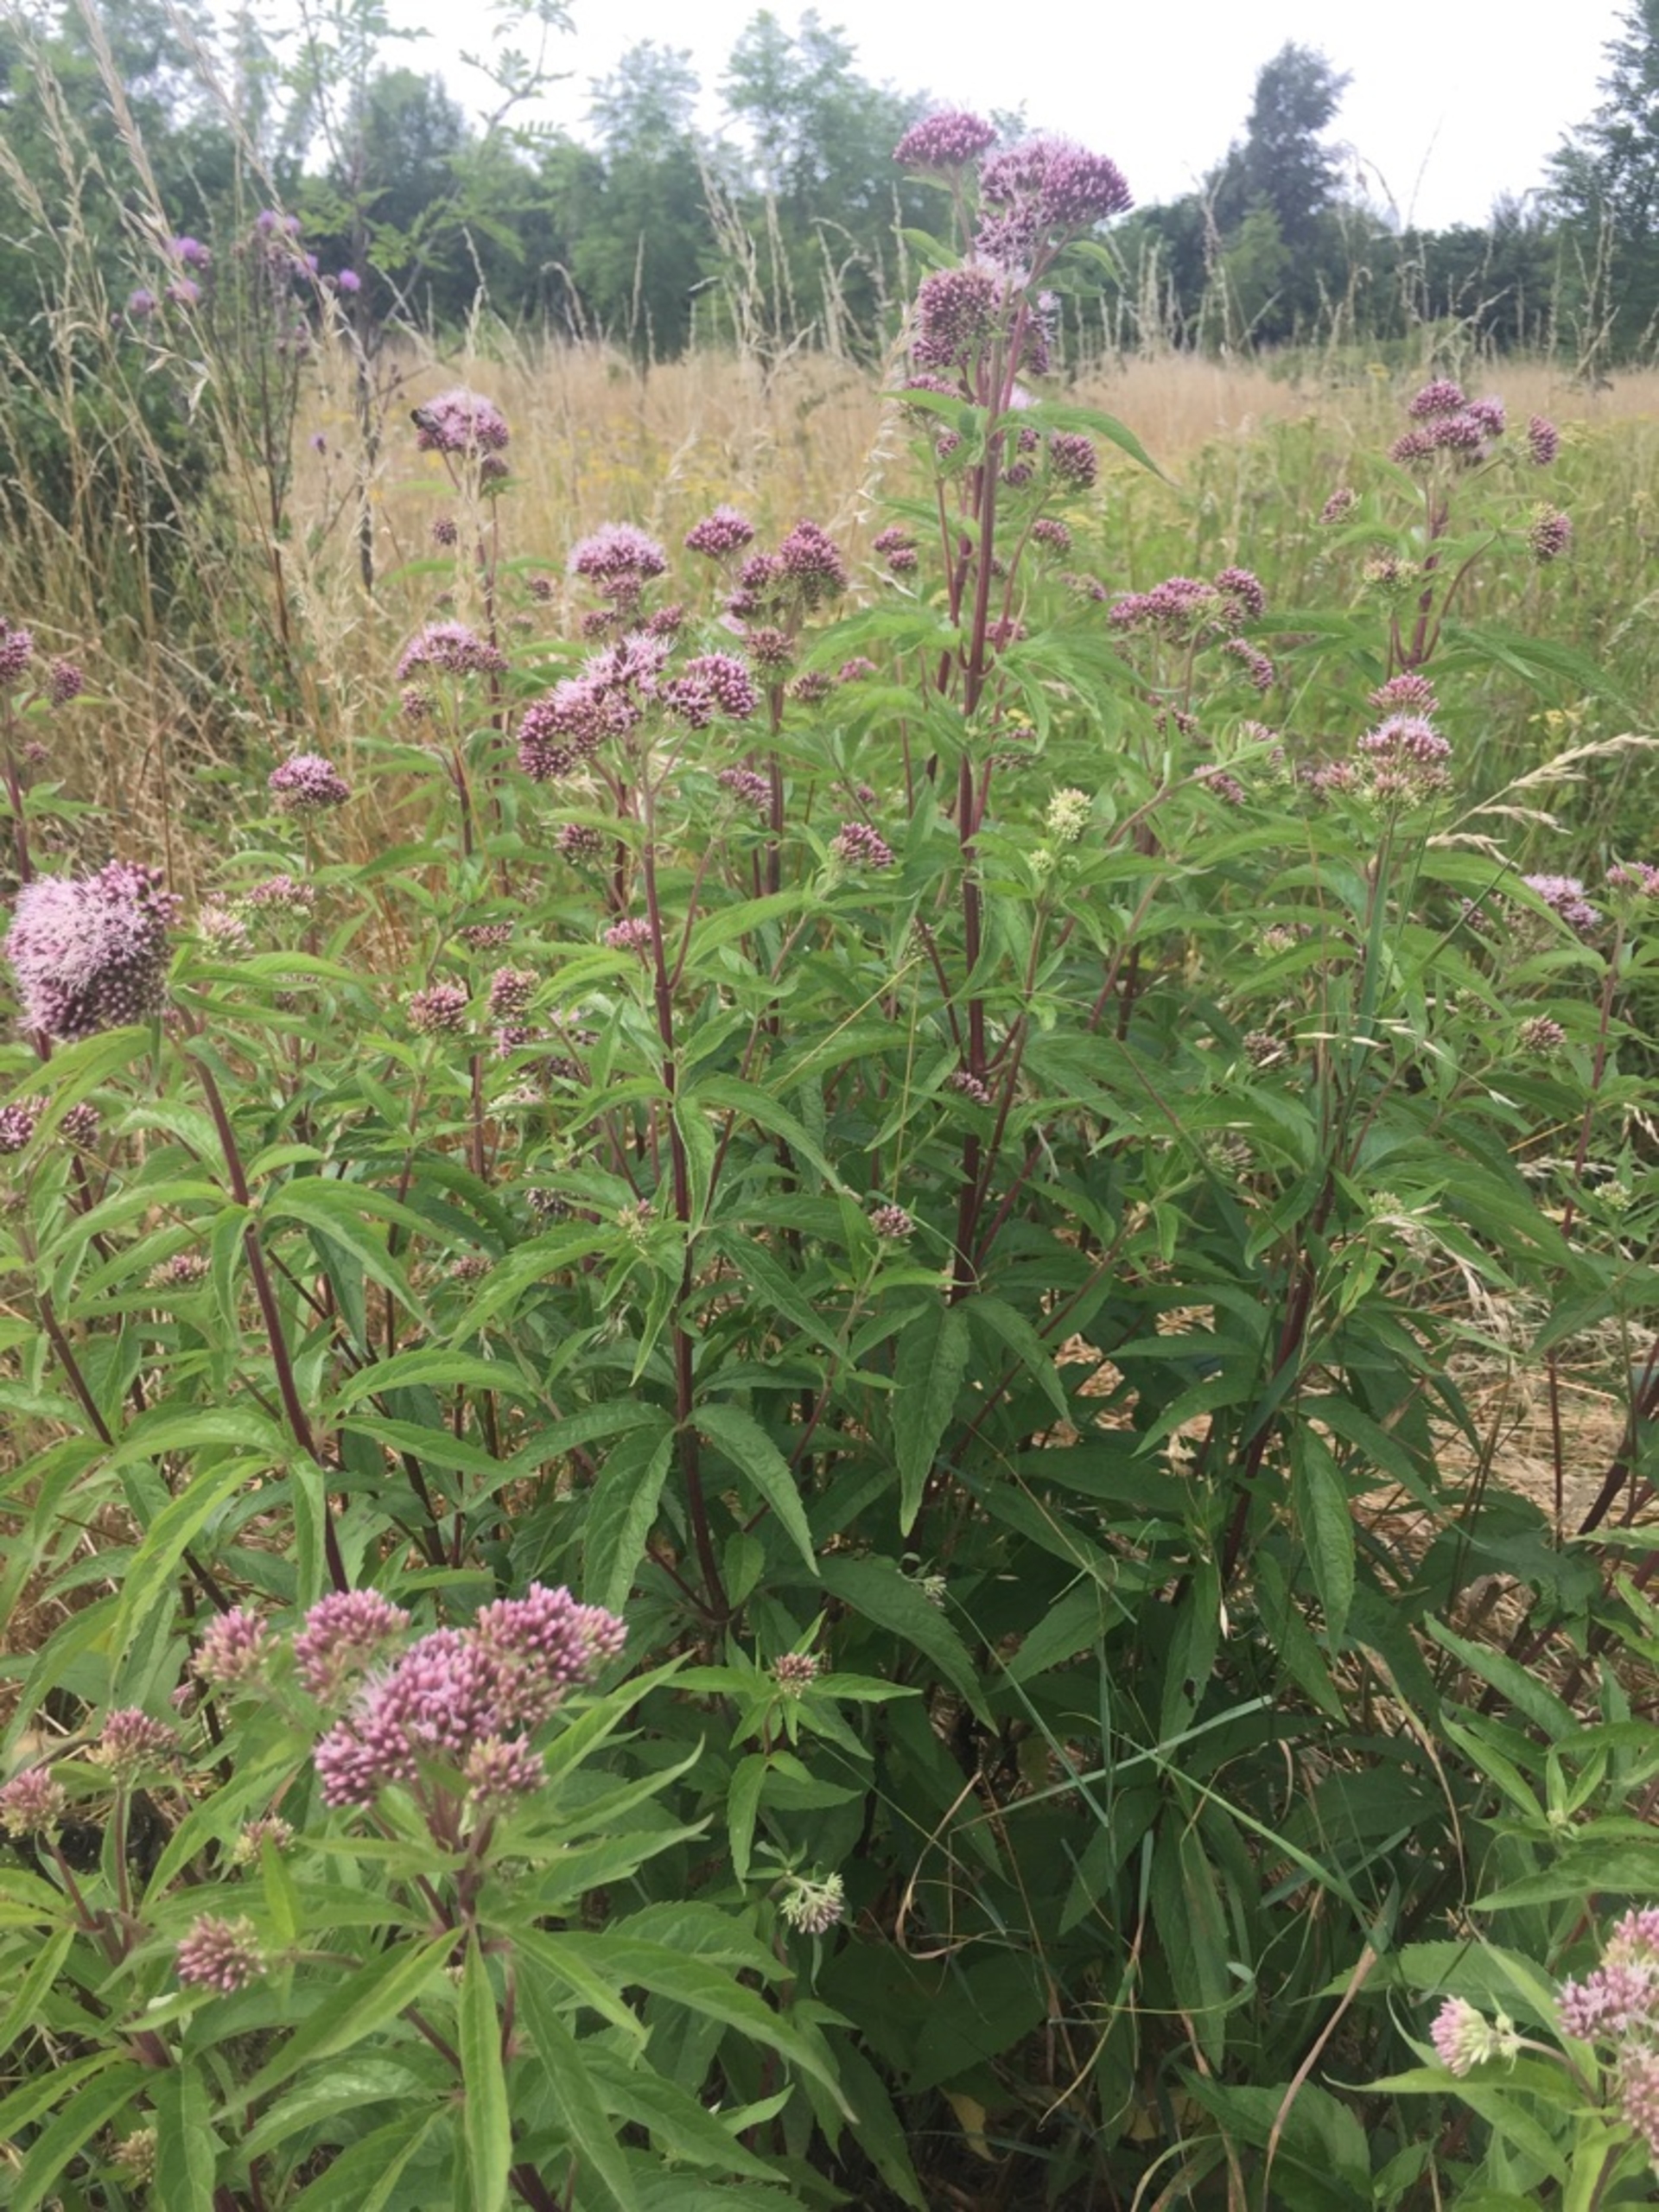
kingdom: Plantae
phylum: Tracheophyta
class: Magnoliopsida
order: Asterales
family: Asteraceae
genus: Eupatorium
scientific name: Eupatorium cannabinum
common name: Hjortetrøst
